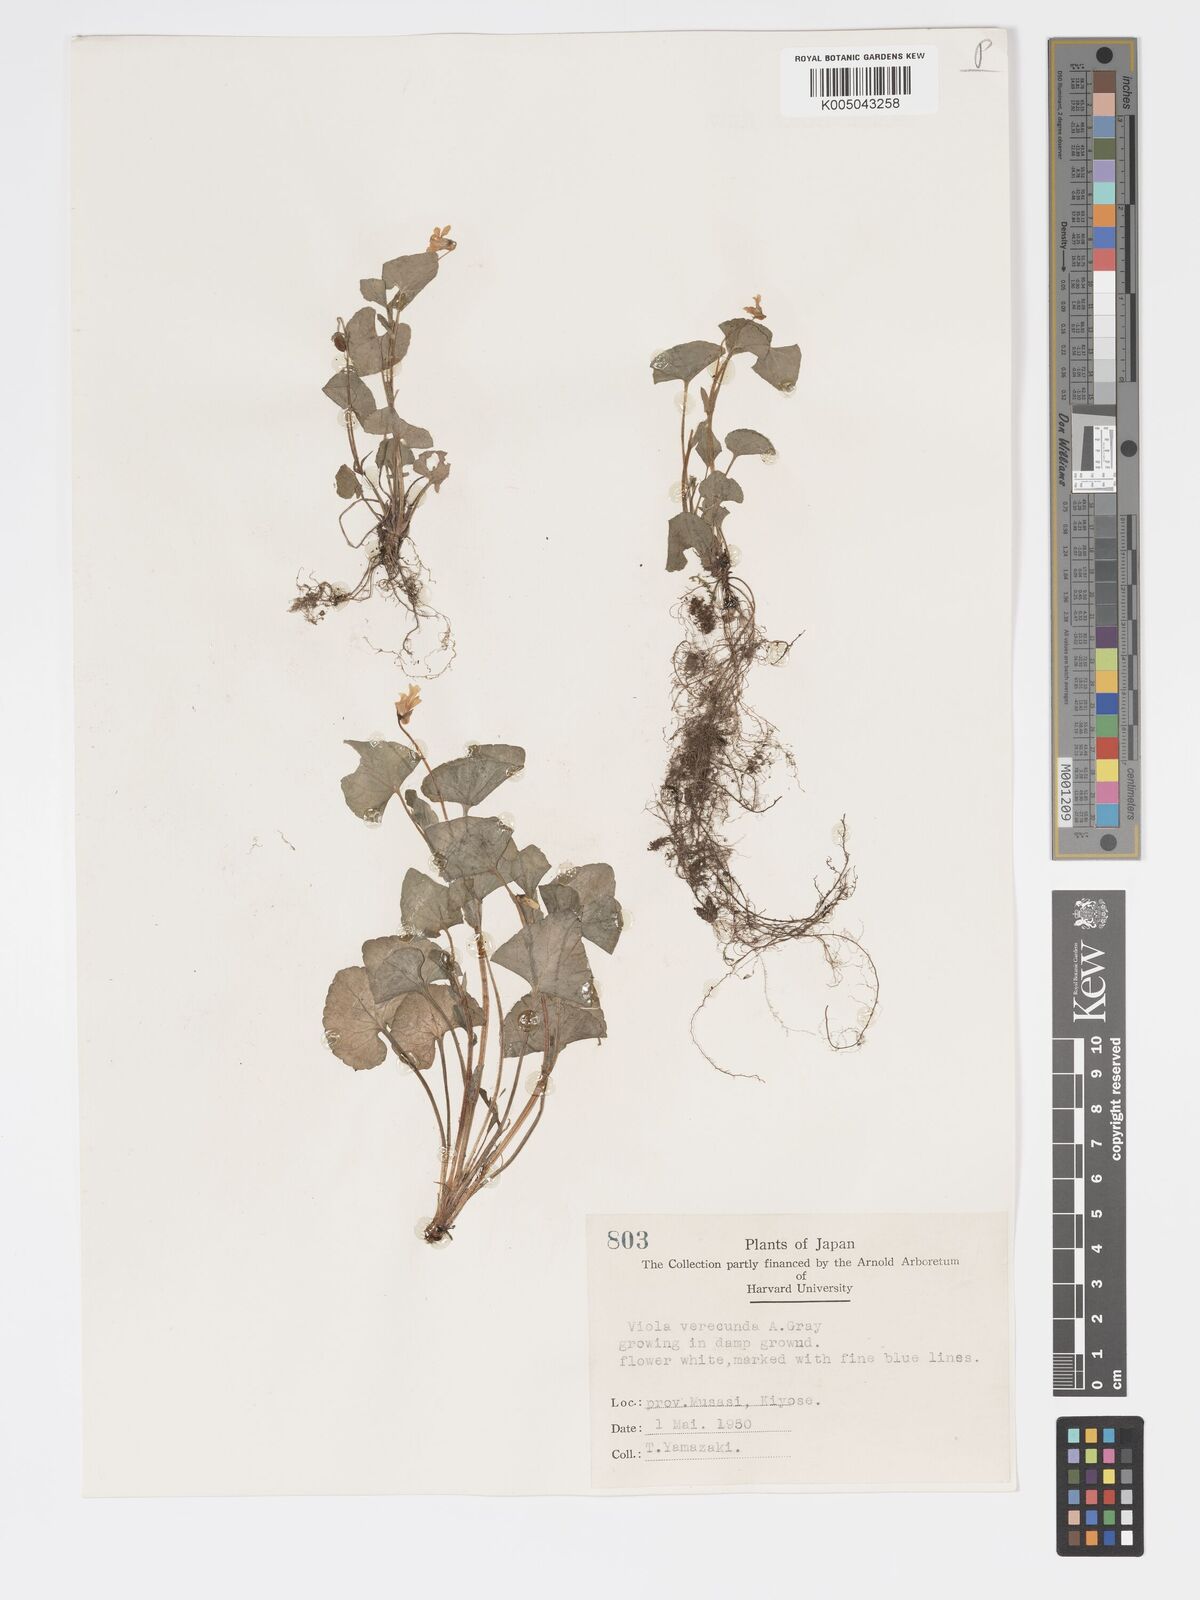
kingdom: Plantae
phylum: Tracheophyta
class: Magnoliopsida
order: Malpighiales
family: Violaceae
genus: Viola
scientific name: Viola hamiltoniana
